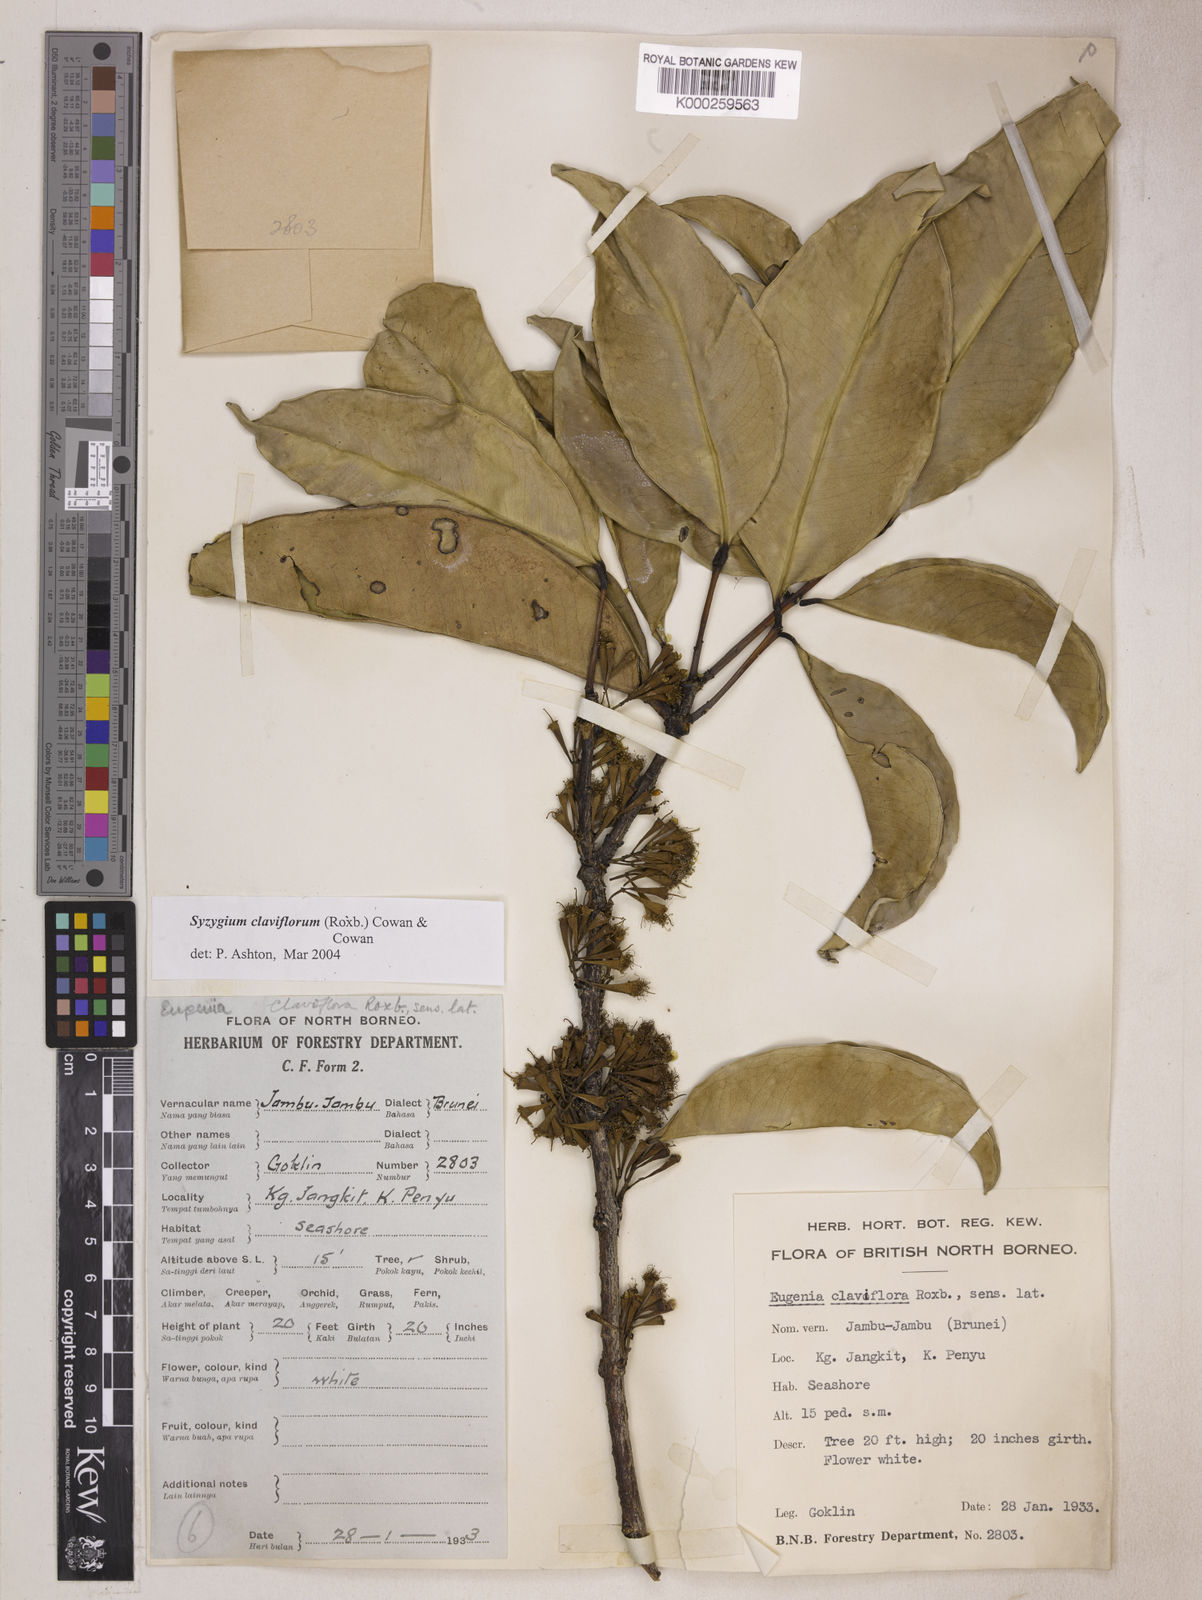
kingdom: Plantae
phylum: Tracheophyta
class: Magnoliopsida
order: Myrtales
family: Myrtaceae
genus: Syzygium
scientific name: Syzygium claviflorum
